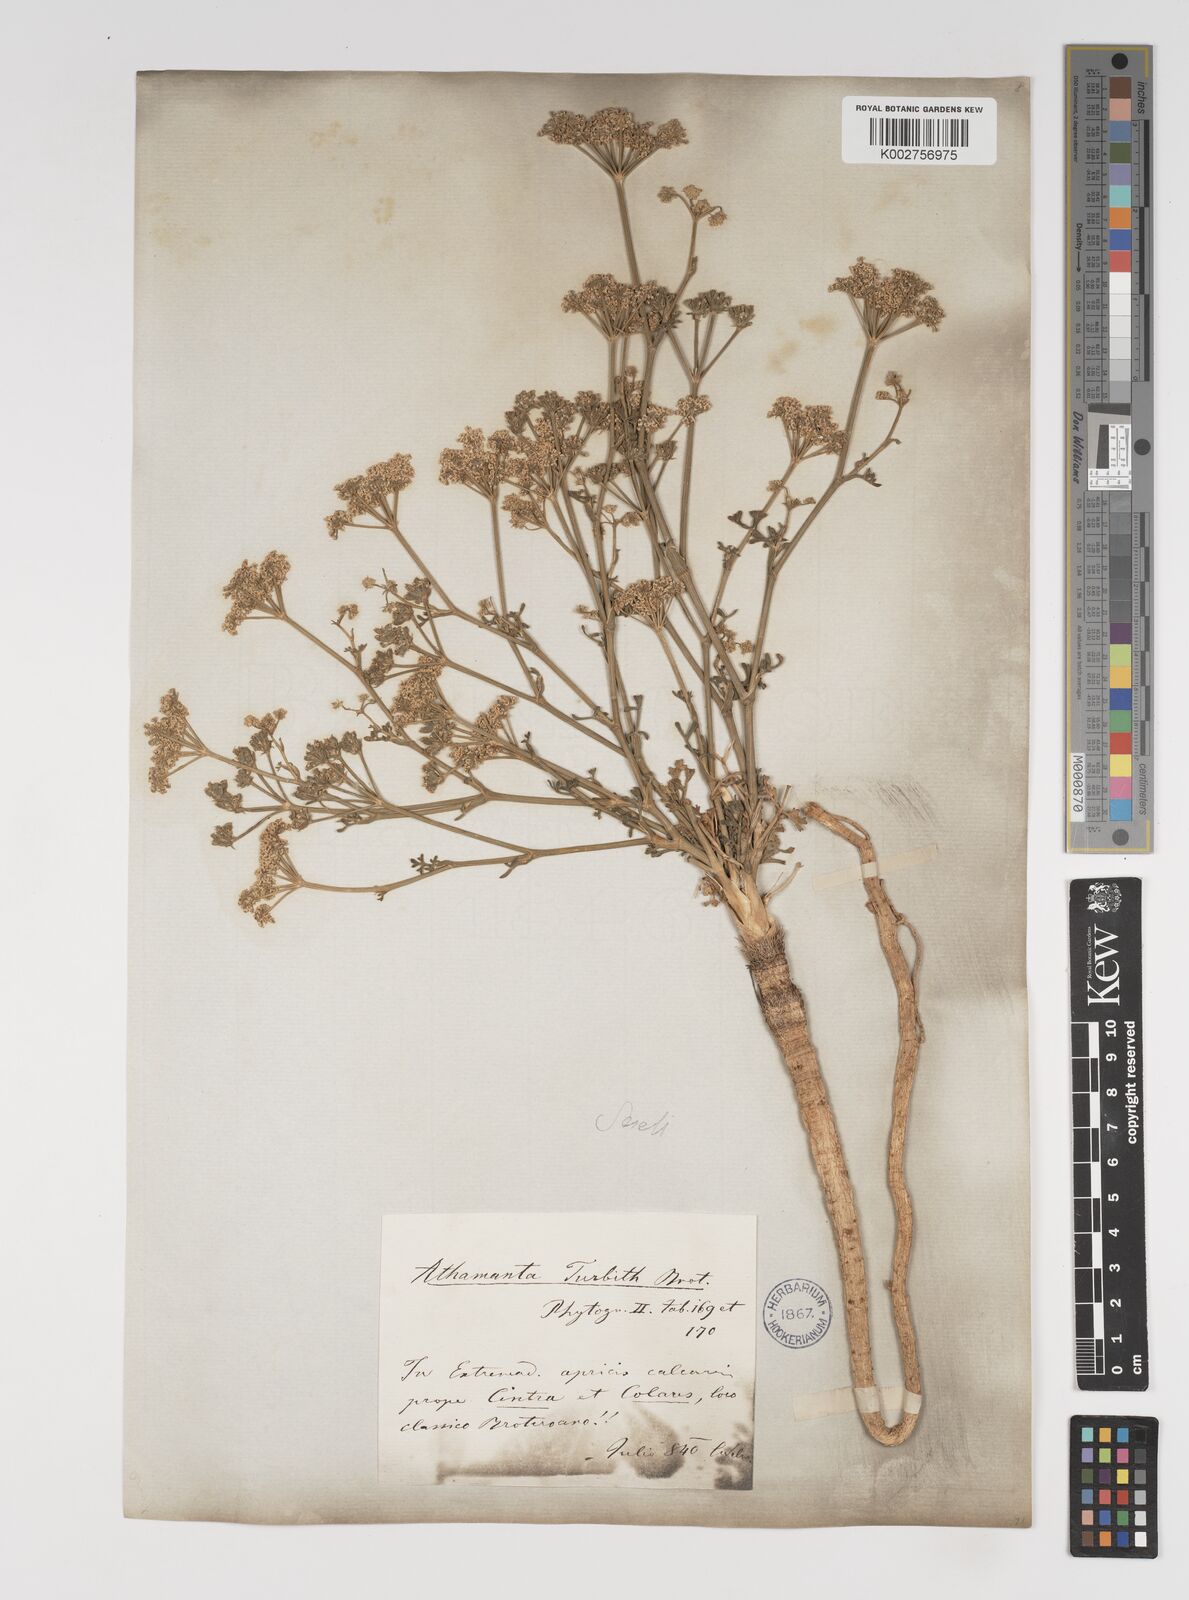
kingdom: Plantae
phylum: Tracheophyta
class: Magnoliopsida
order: Apiales
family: Apiaceae
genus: Seseli
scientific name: Seseli
